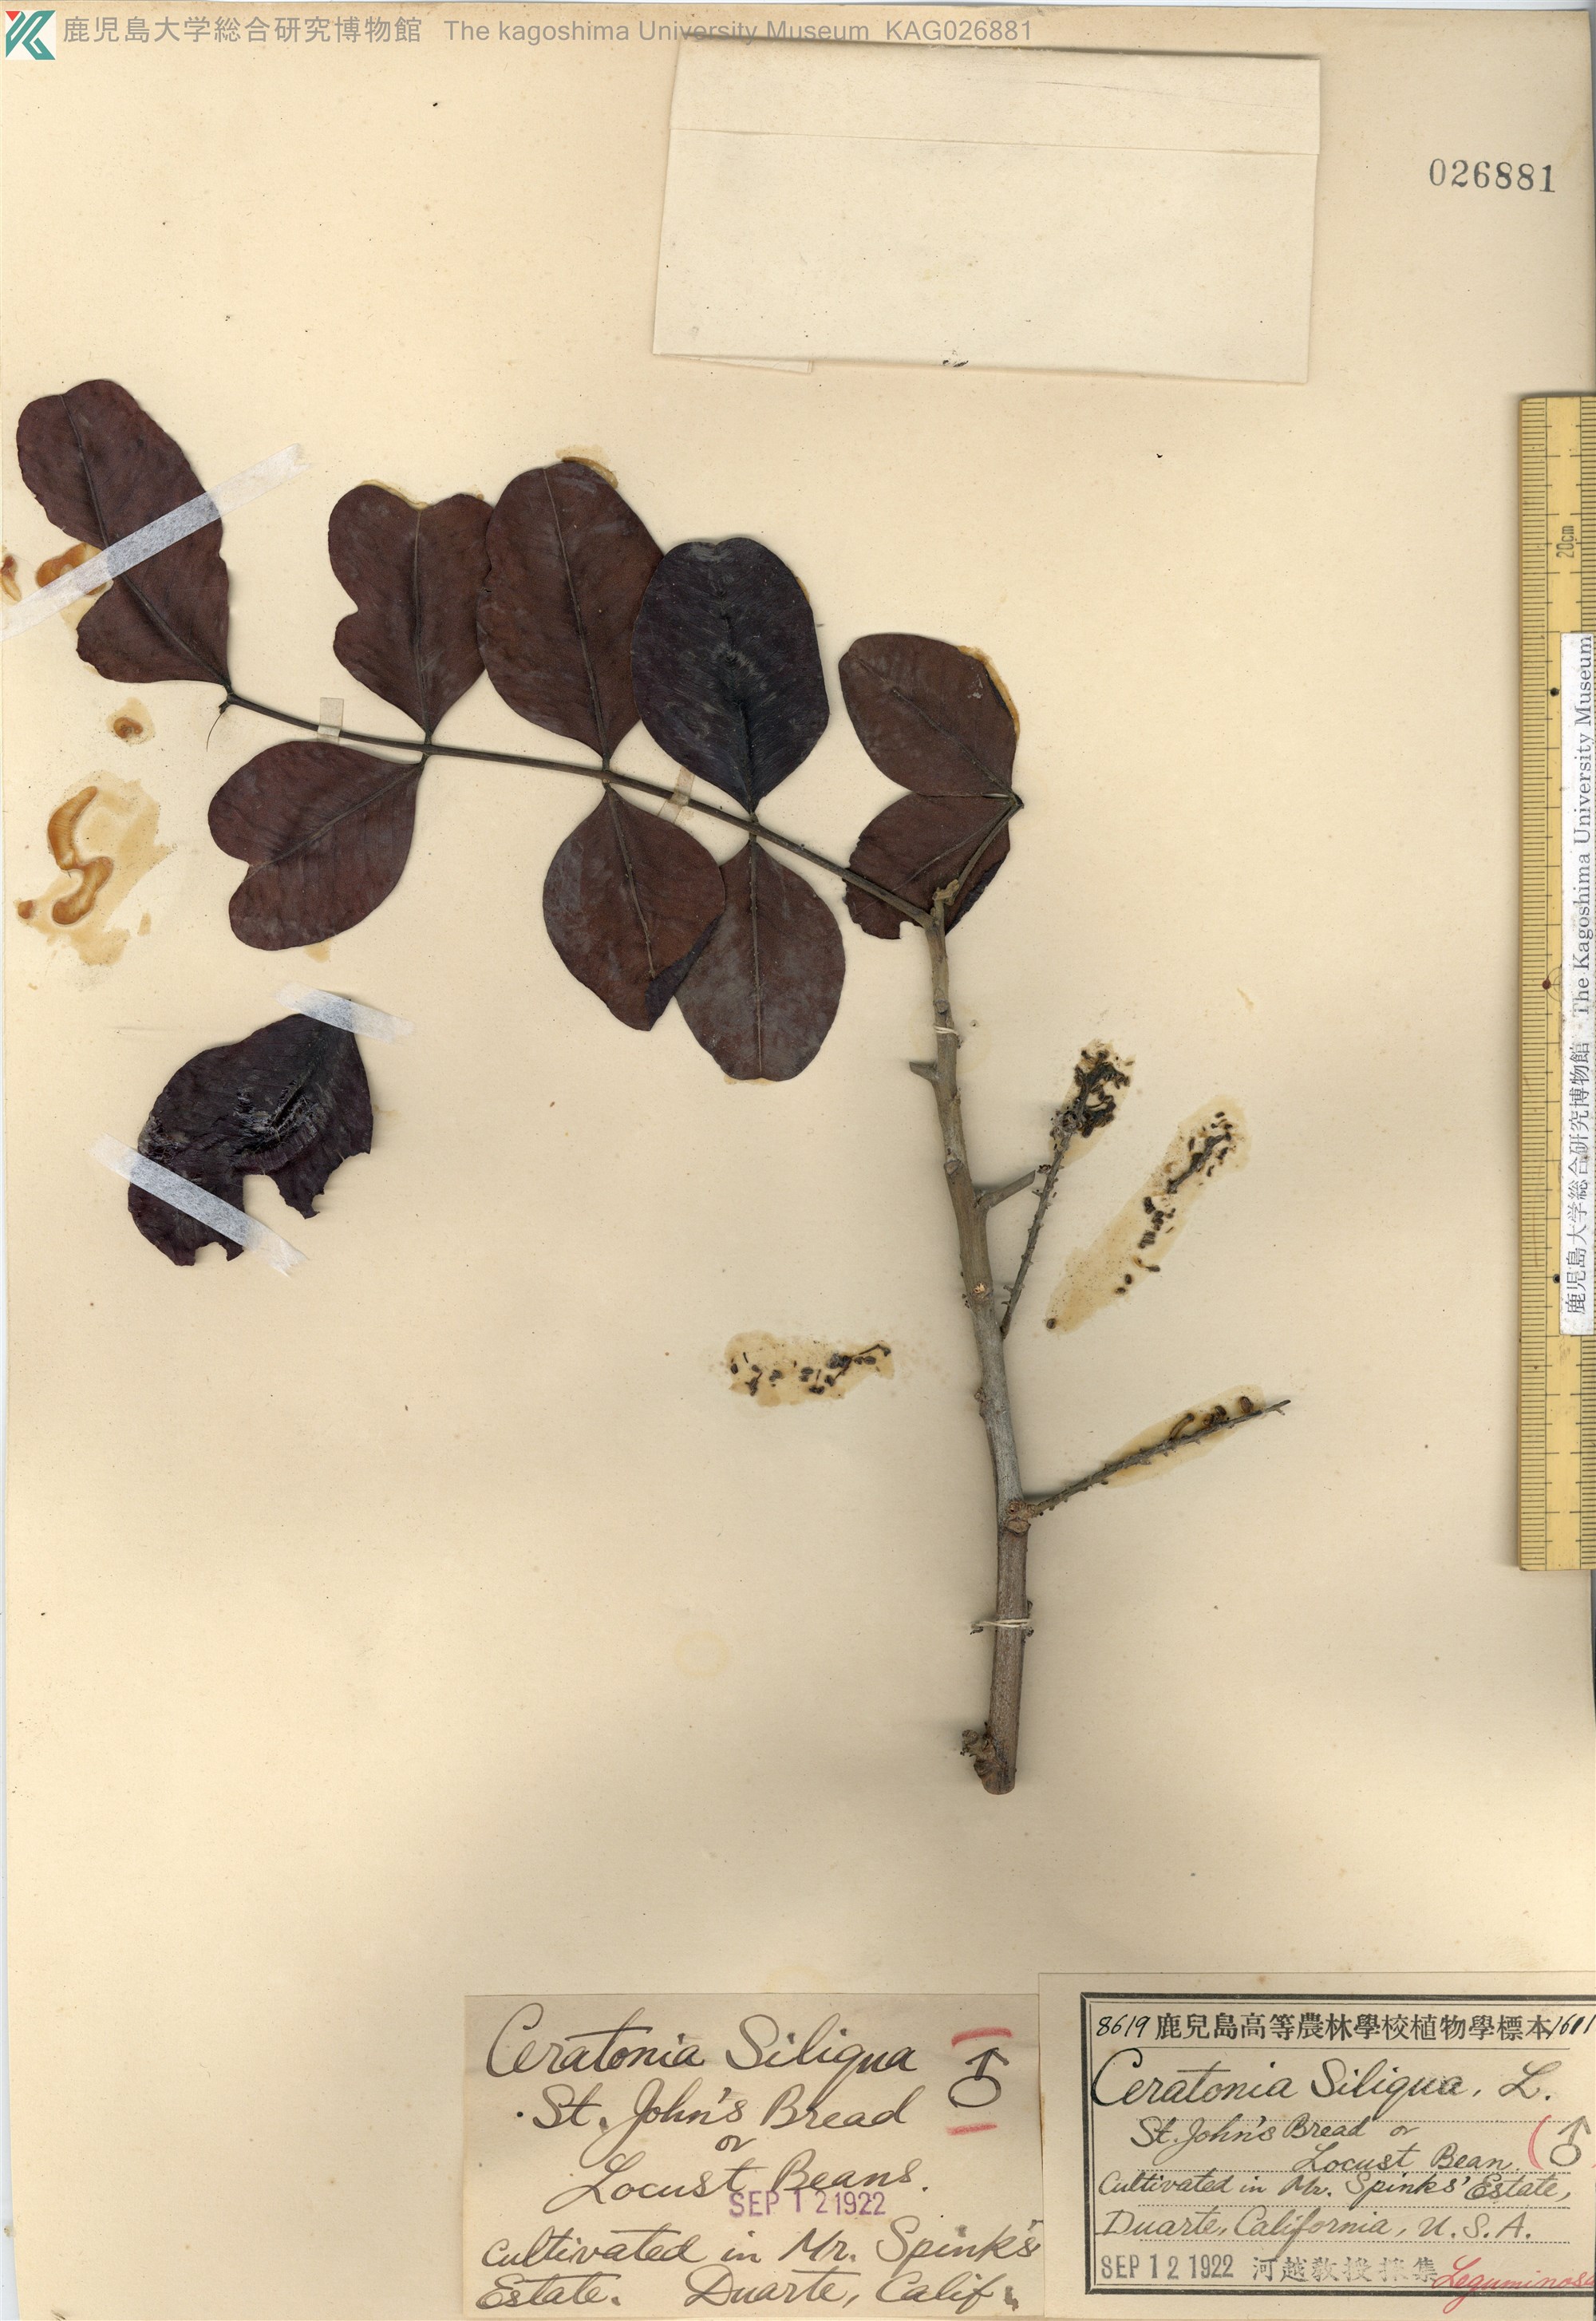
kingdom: Plantae
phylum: Tracheophyta
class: Magnoliopsida
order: Fabales
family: Fabaceae
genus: Ceratonia
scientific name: Ceratonia siliqua
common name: Carob
